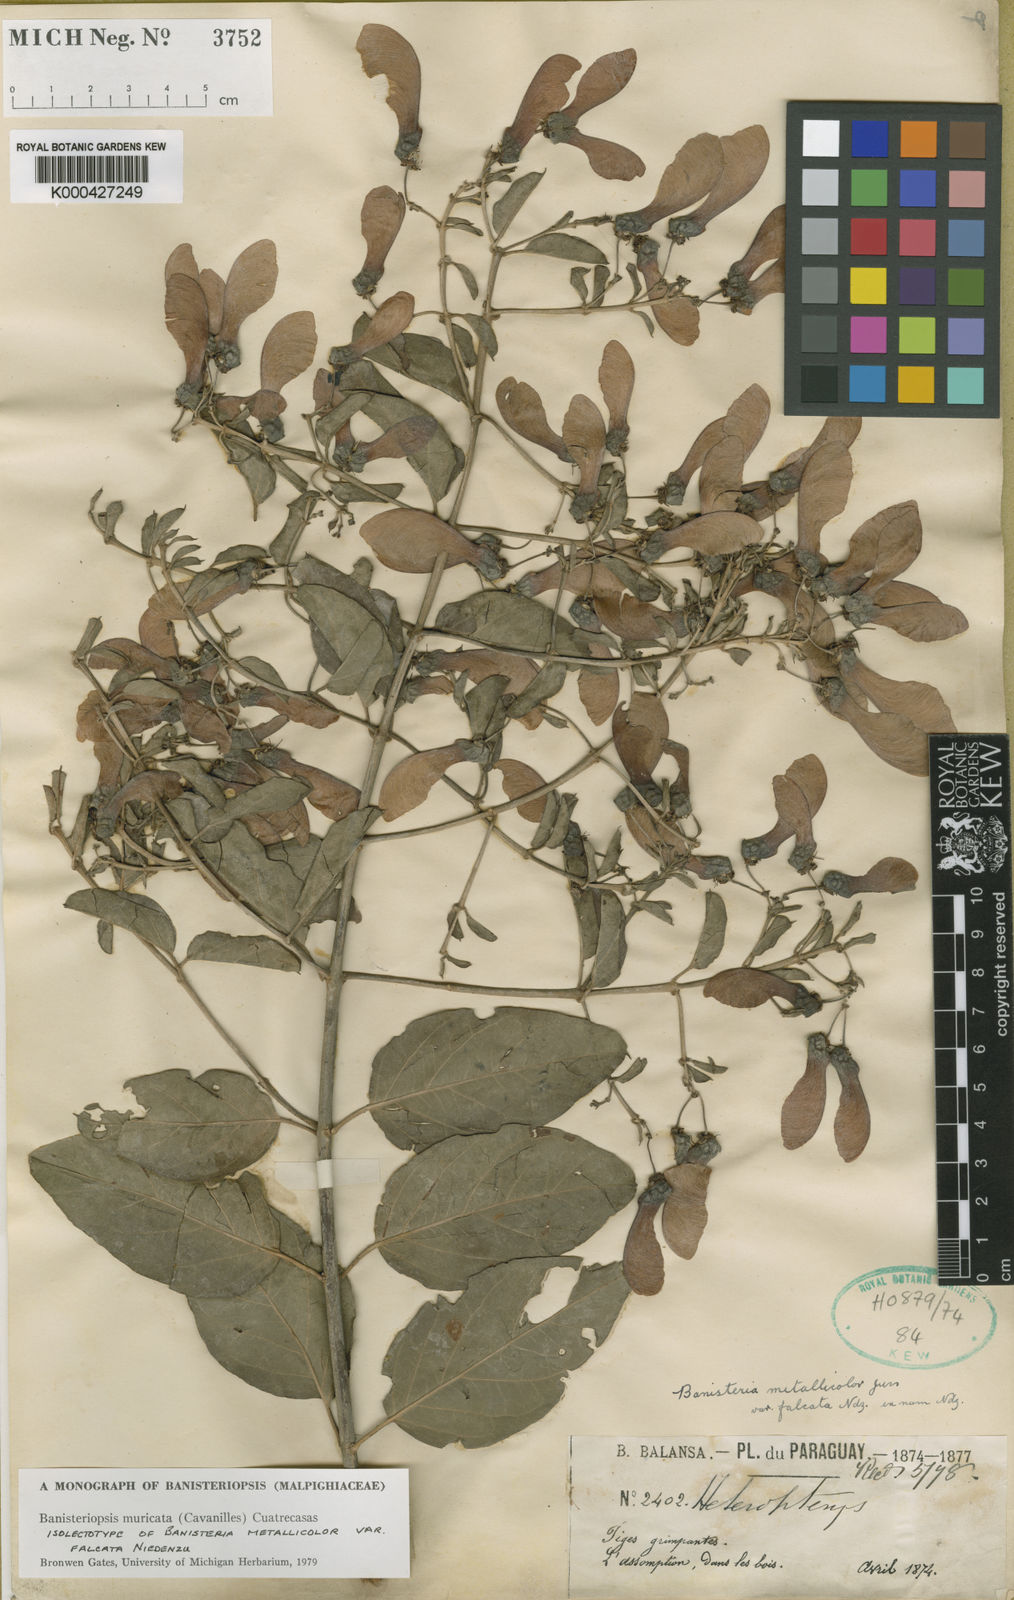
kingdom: Plantae
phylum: Tracheophyta
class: Magnoliopsida
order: Malpighiales
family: Malpighiaceae
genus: Banisteriopsis
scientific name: Banisteriopsis muricata
